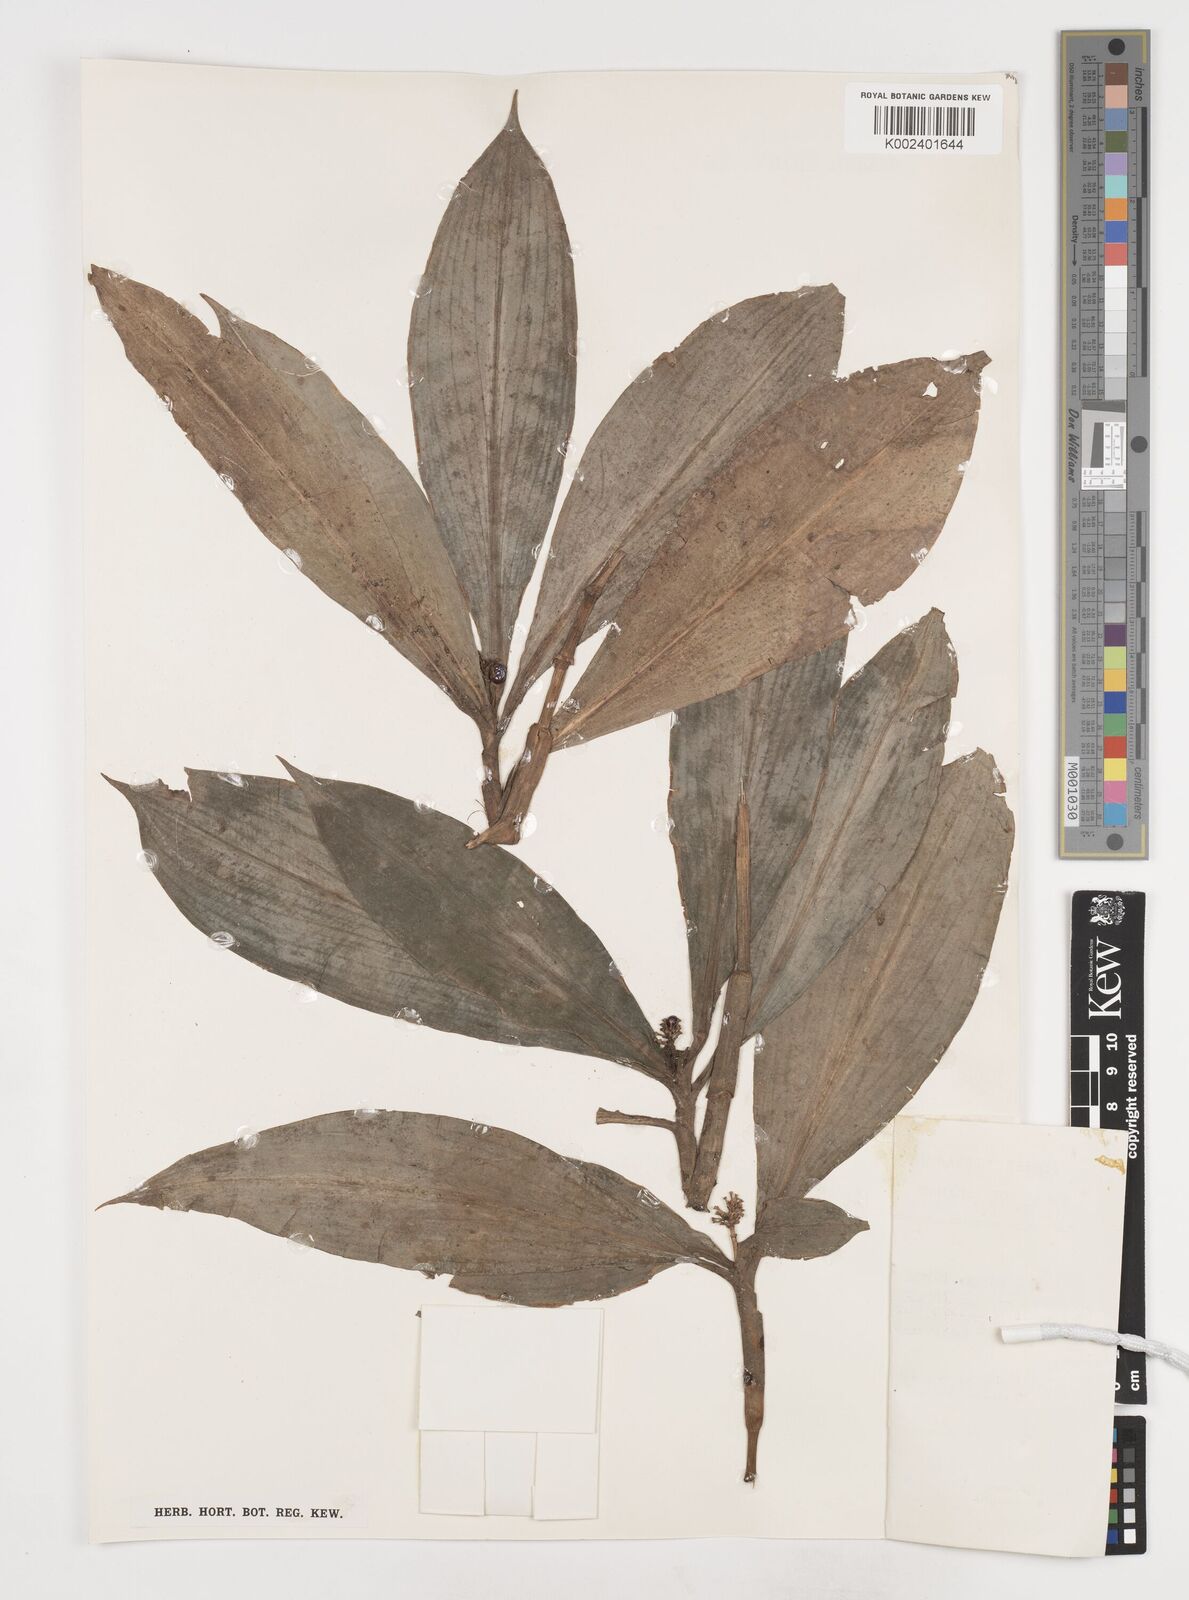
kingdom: Plantae
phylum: Tracheophyta
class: Liliopsida
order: Commelinales
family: Commelinaceae
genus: Pollia
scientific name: Pollia condensata
